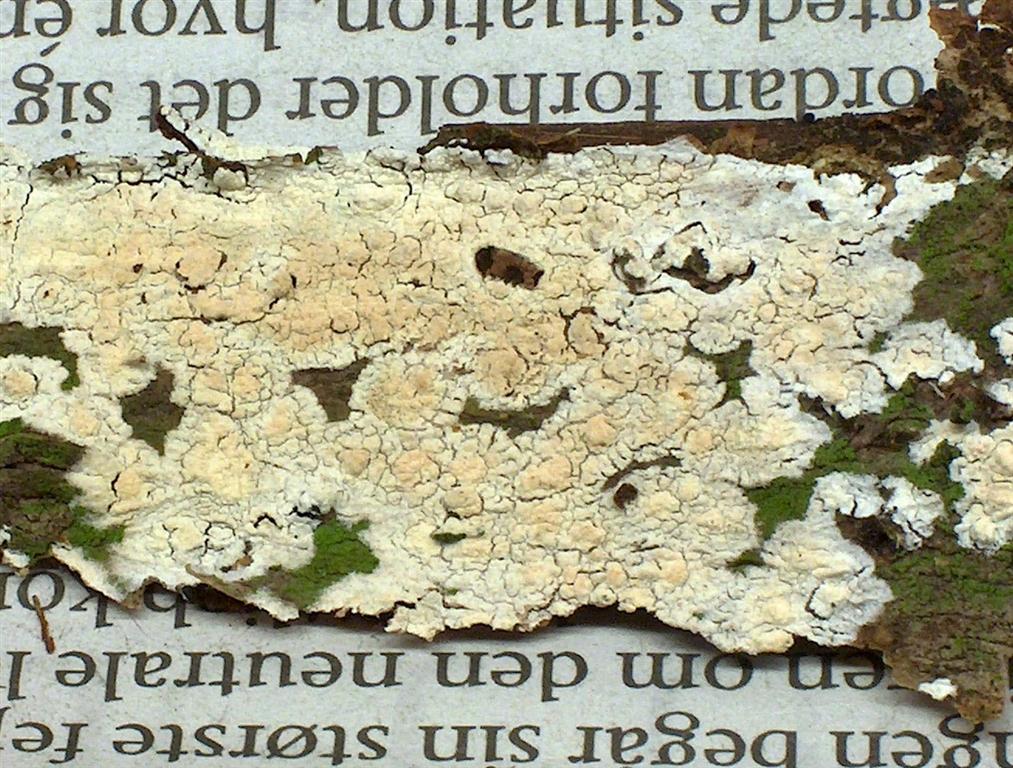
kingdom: Fungi
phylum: Basidiomycota
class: Agaricomycetes
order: Corticiales
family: Corticiaceae
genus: Lyomyces
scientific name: Lyomyces crustosus
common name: vortet hyldehinde
